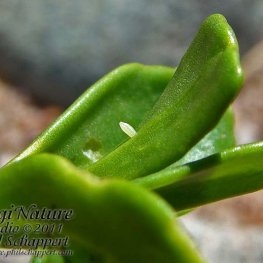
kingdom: Animalia
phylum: Arthropoda
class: Insecta
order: Lepidoptera
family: Pieridae
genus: Pieris
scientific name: Pieris rapae
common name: Cabbage White
